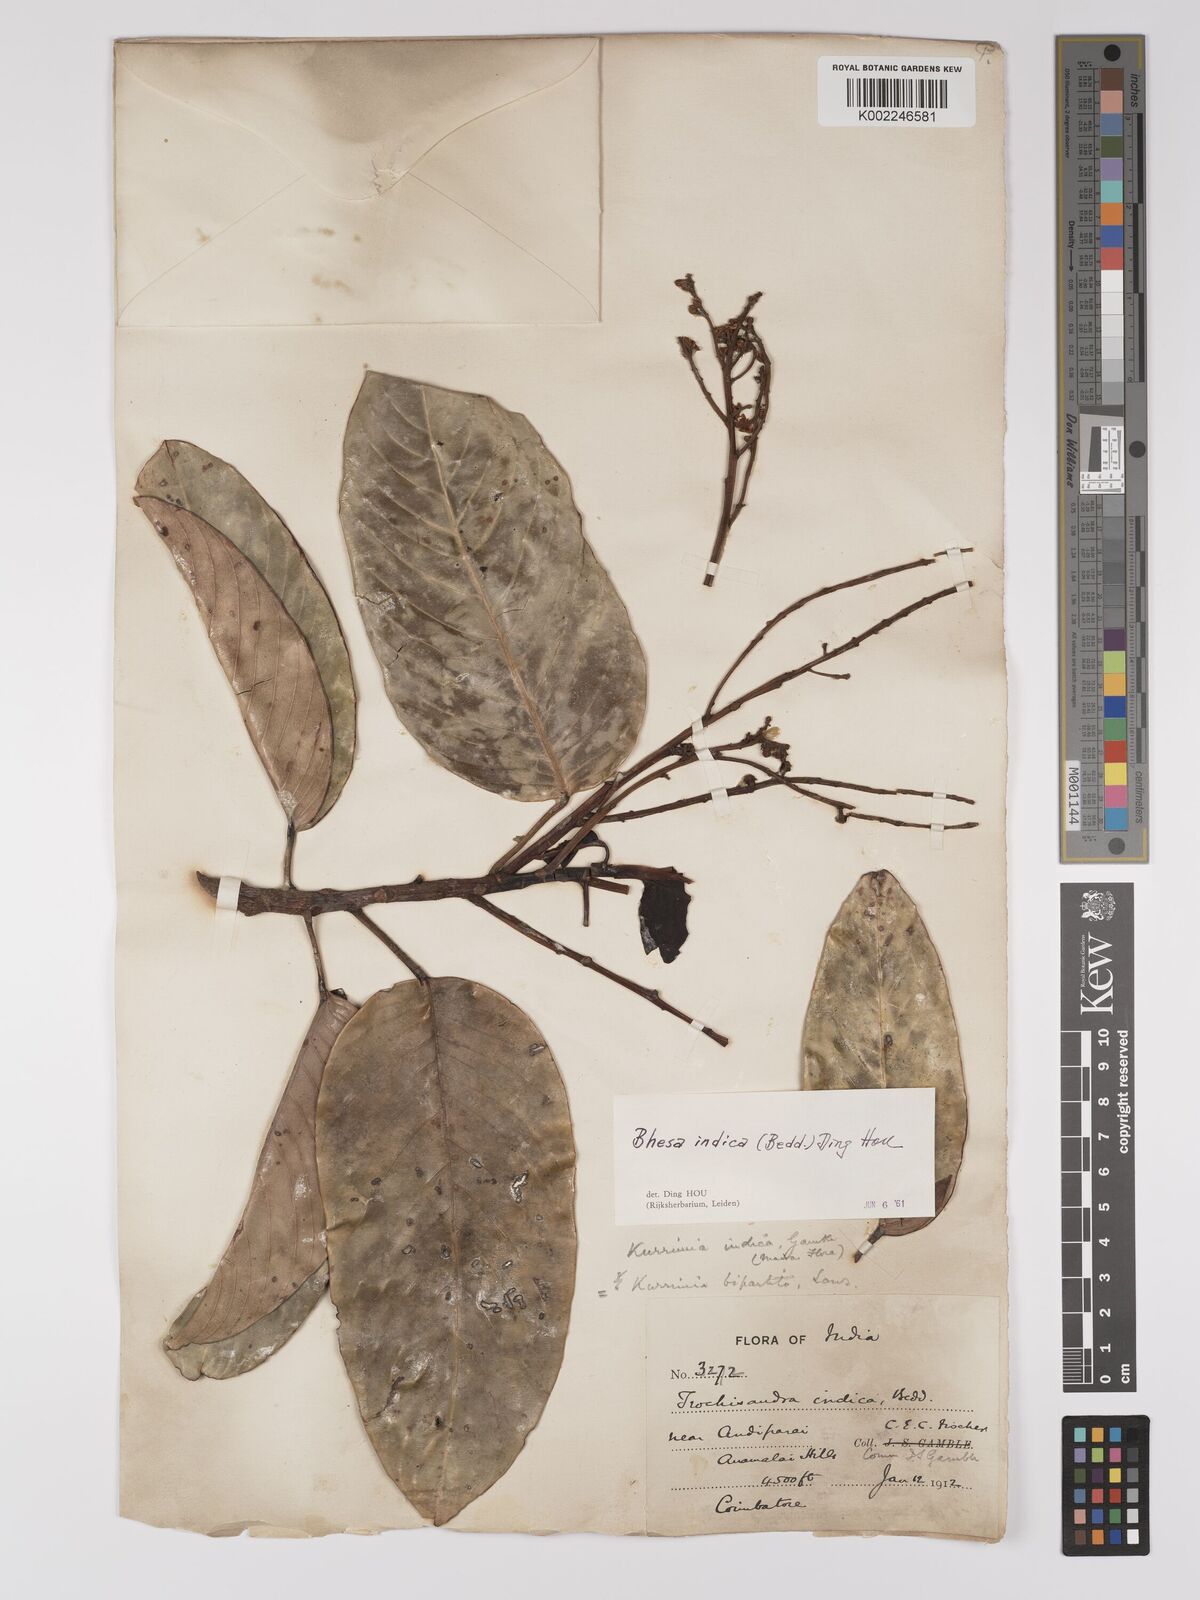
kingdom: Plantae
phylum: Tracheophyta
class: Magnoliopsida
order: Malpighiales
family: Centroplacaceae
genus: Bhesa
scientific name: Bhesa indica
